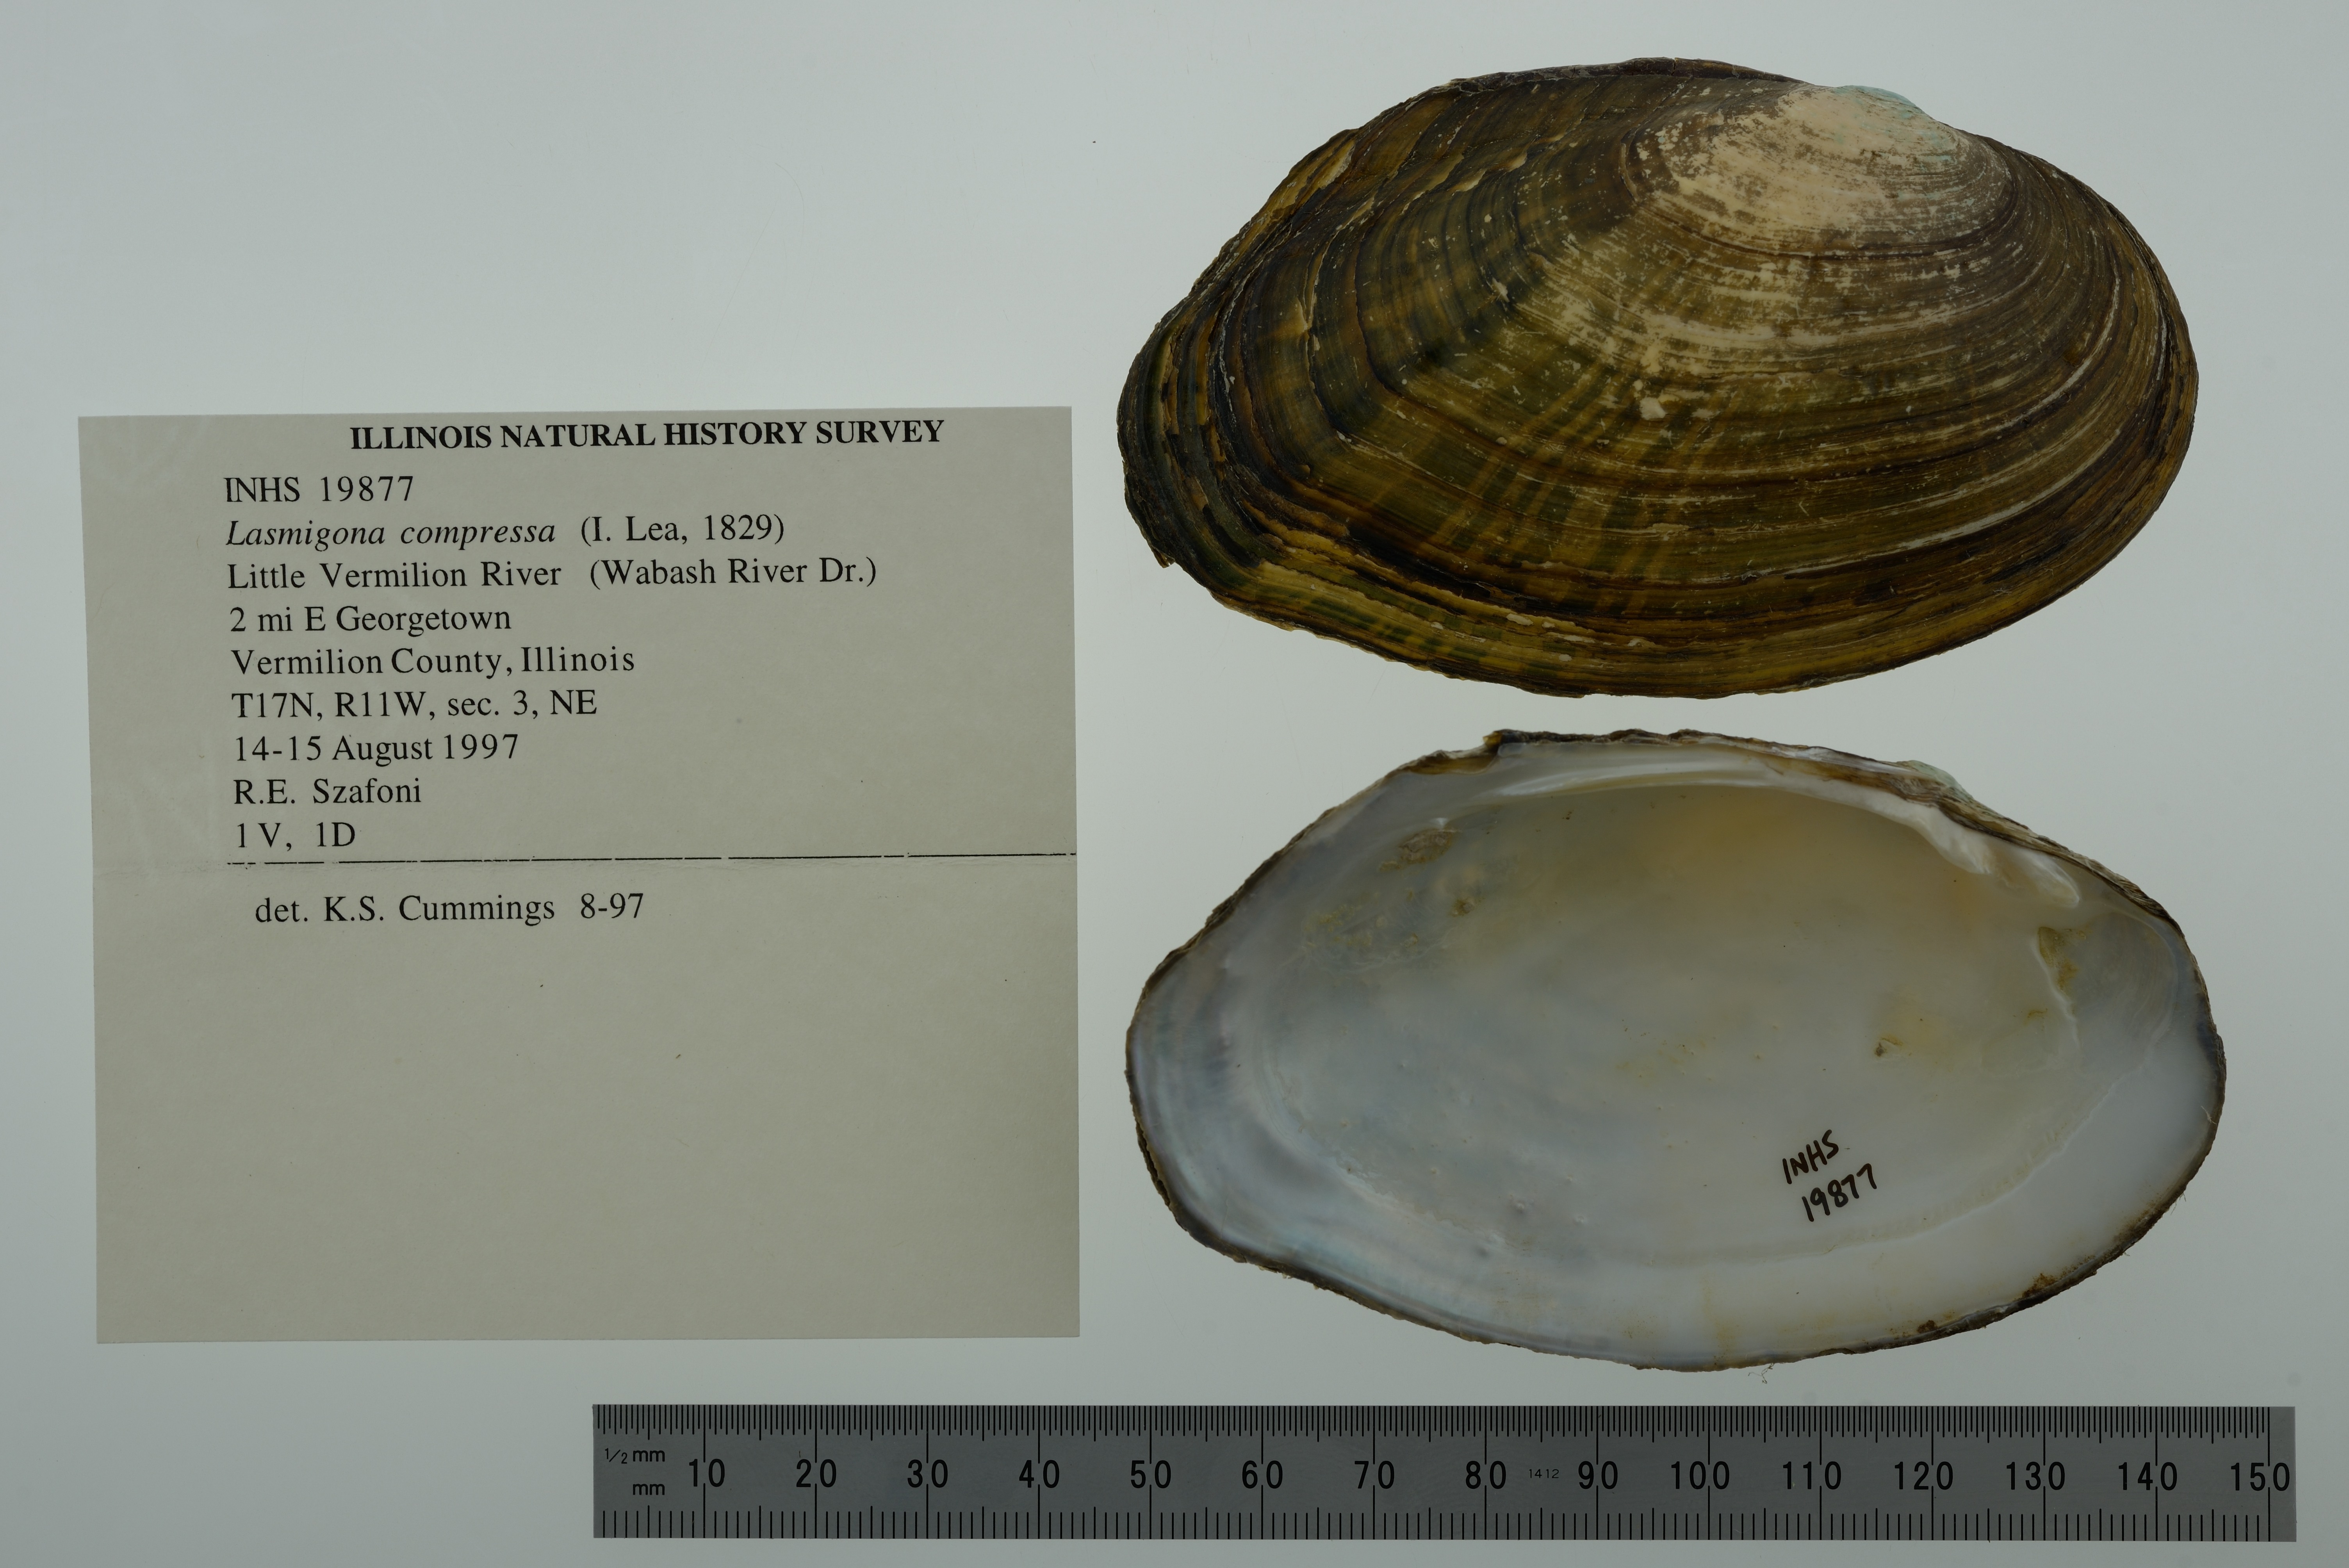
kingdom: Animalia
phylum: Mollusca
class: Bivalvia
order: Unionida
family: Unionidae
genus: Lasmigona
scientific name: Lasmigona compressa
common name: Creek heelsplitter
